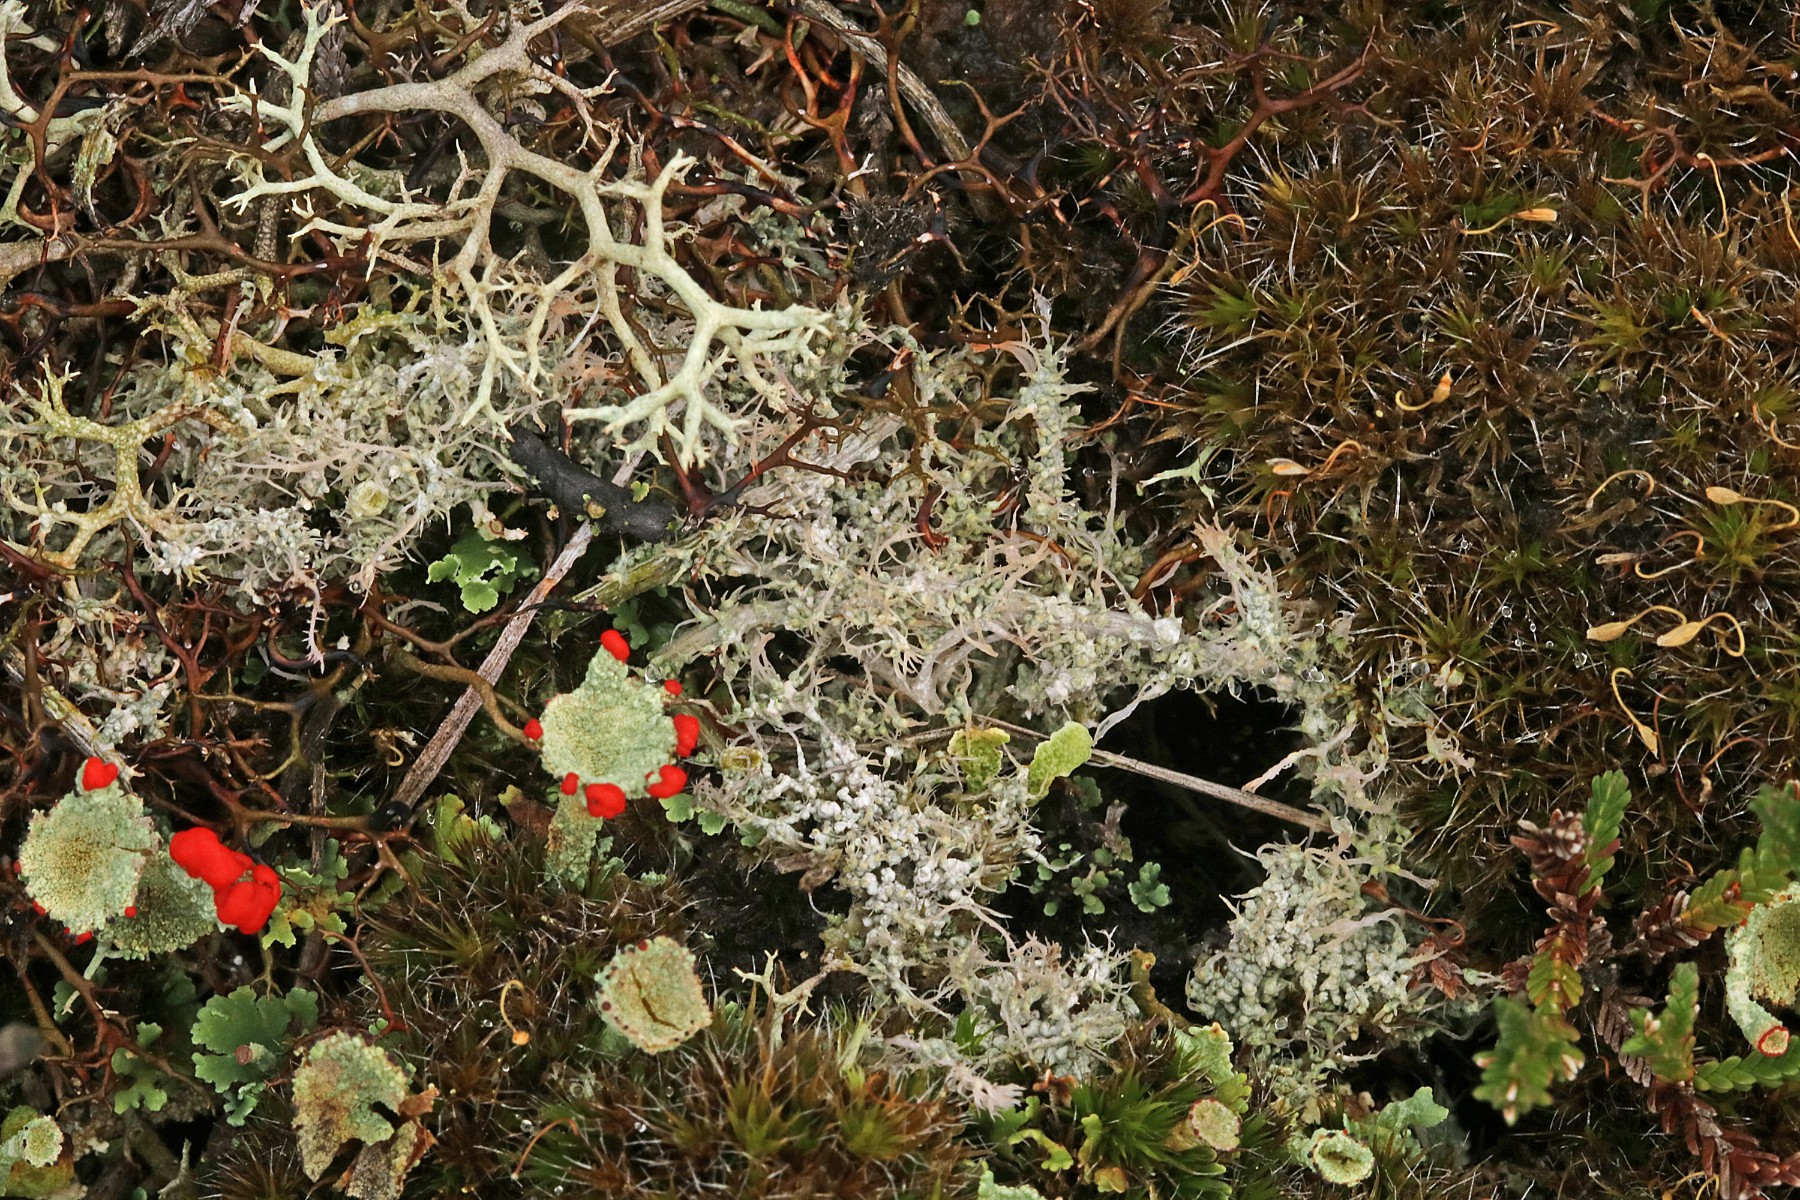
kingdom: Fungi
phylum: Ascomycota
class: Lecanoromycetes
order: Pertusariales
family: Ochrolechiaceae
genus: Ochrolechia
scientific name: Ochrolechia frigida
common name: fjeld-blegskivelav
